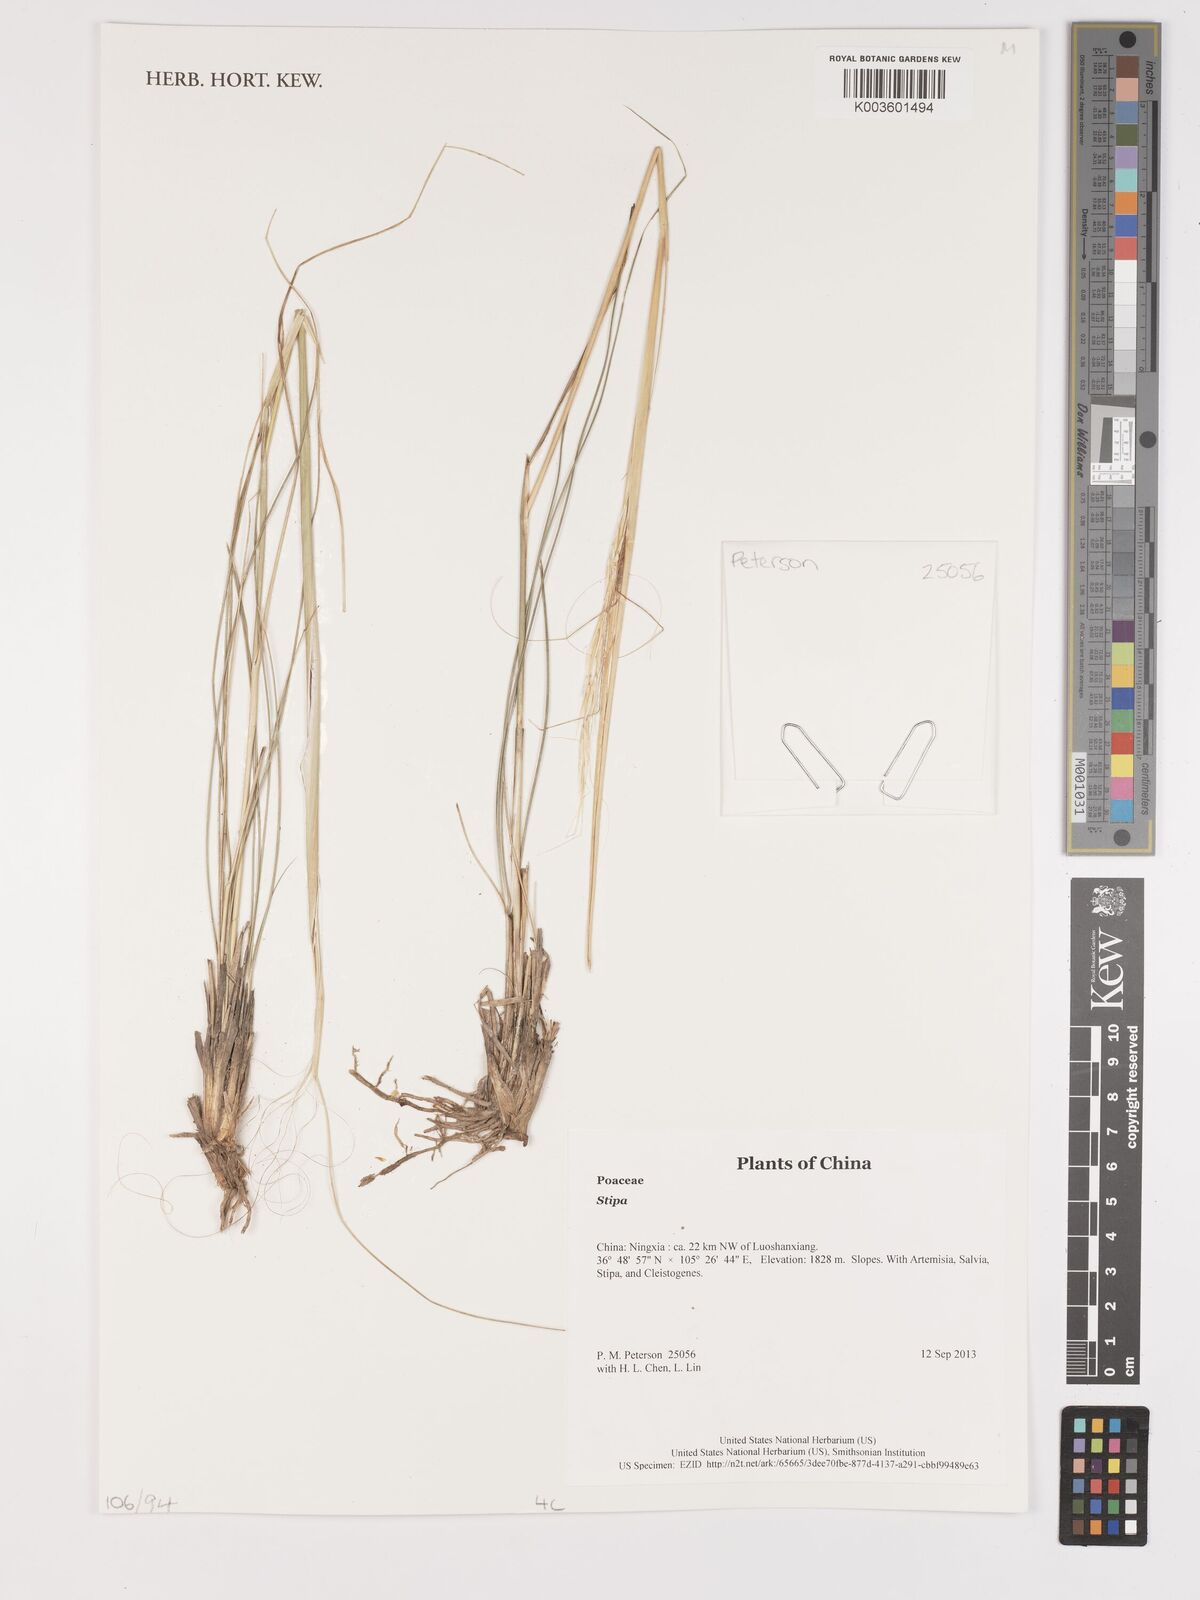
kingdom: Plantae
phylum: Tracheophyta
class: Liliopsida
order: Poales
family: Poaceae
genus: Stipa
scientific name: Stipa
